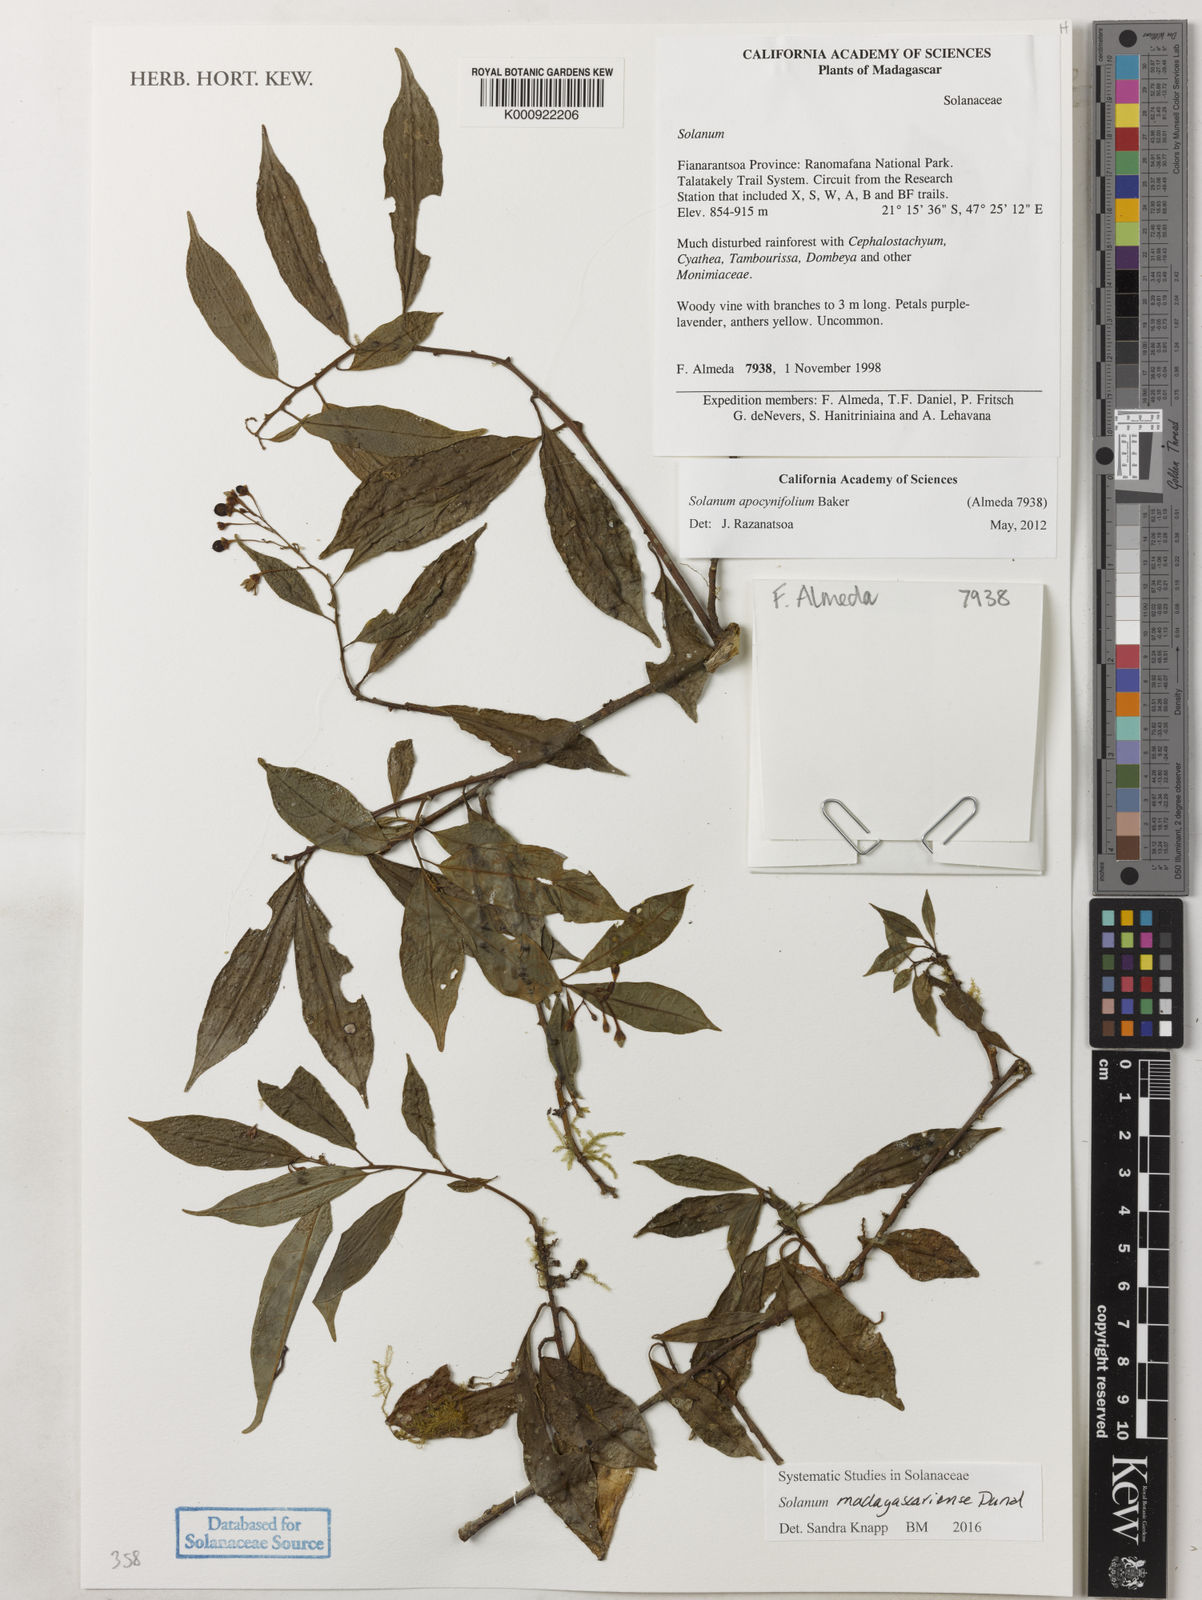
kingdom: Plantae
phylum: Tracheophyta
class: Magnoliopsida
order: Solanales
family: Solanaceae
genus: Solanum
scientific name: Solanum madagascariense
